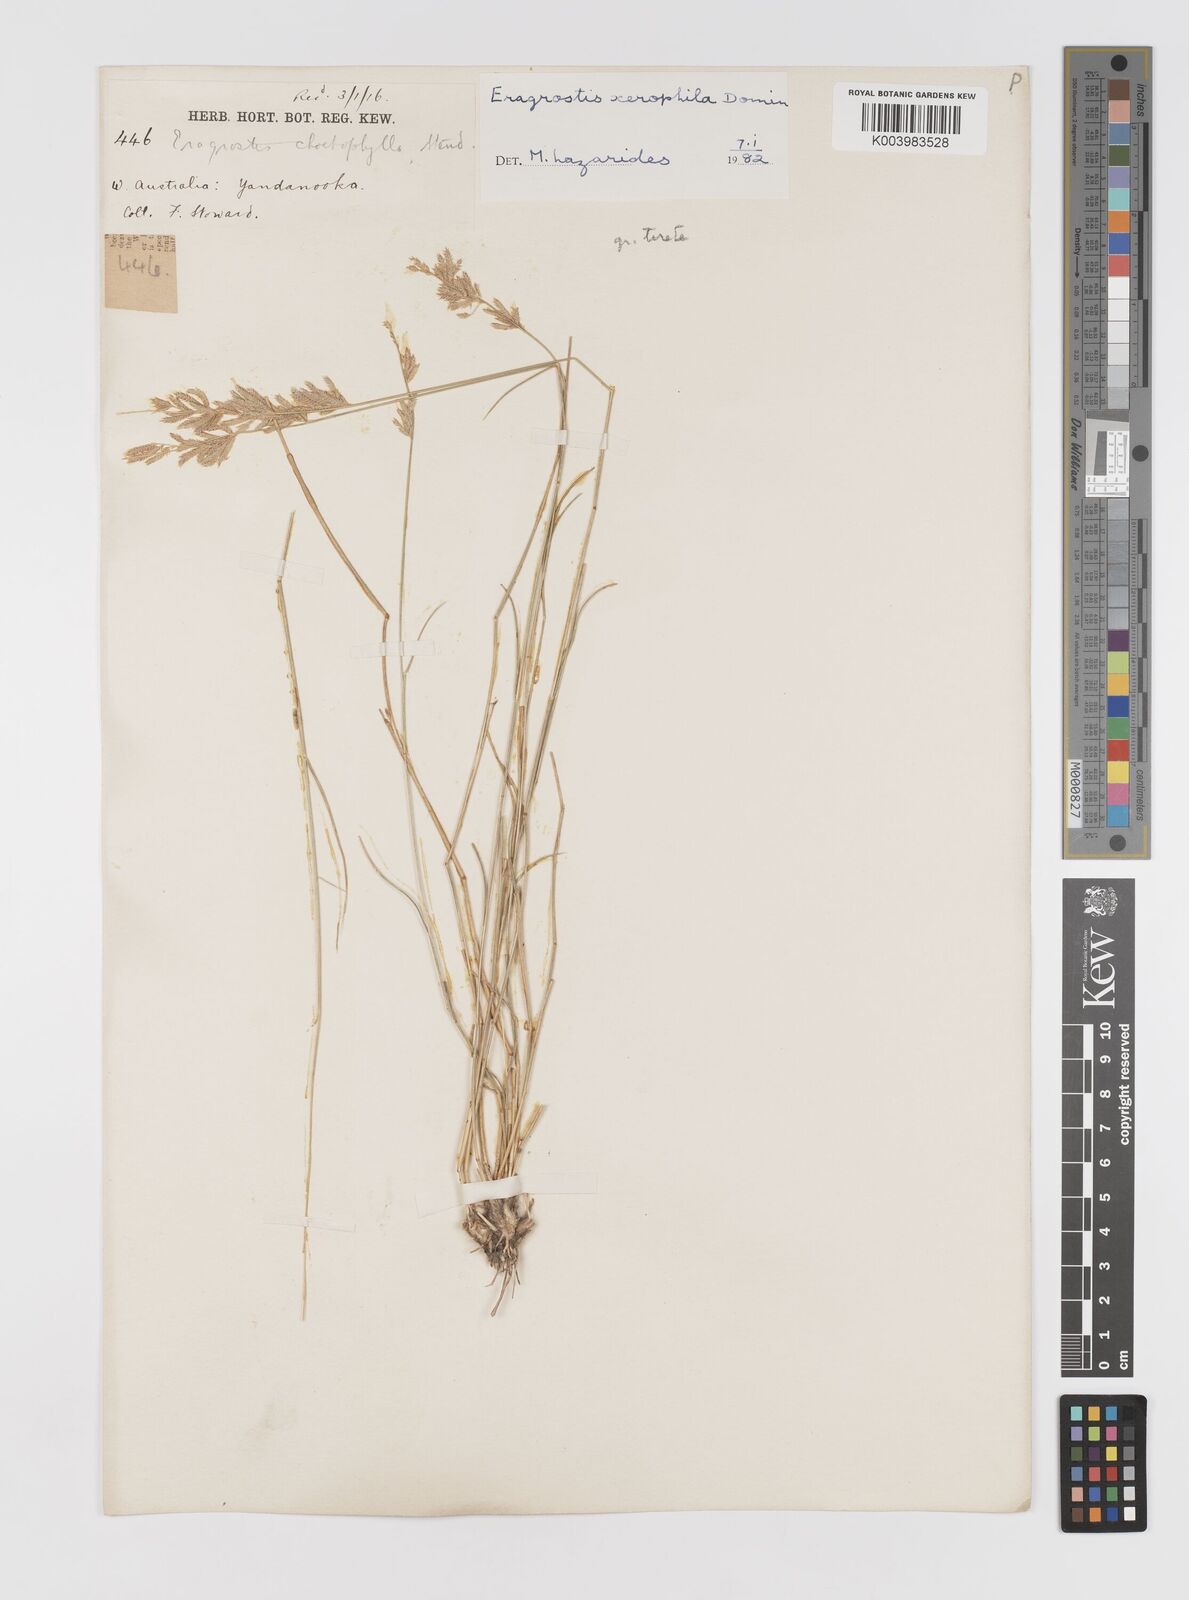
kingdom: Plantae
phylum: Tracheophyta
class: Liliopsida
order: Poales
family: Poaceae
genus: Eragrostis
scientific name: Eragrostis xerophila
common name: Wire wandarrie grass
